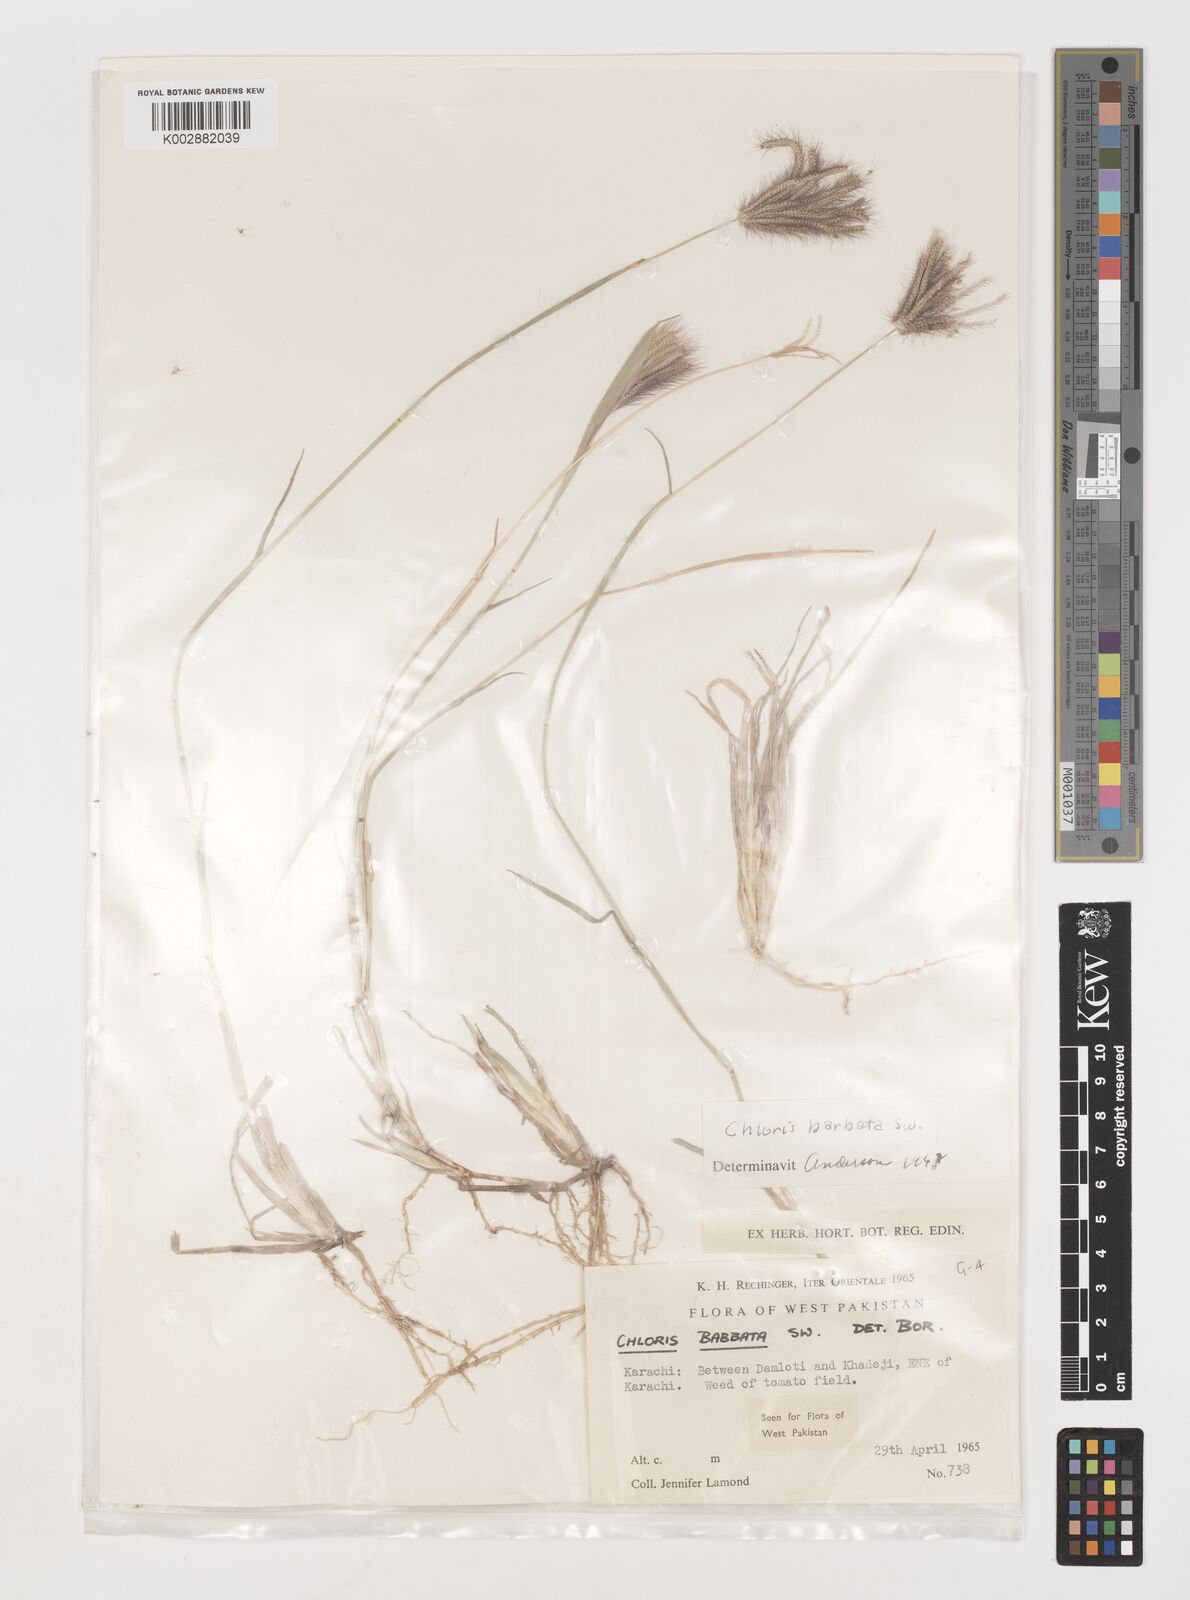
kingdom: Plantae
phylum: Tracheophyta
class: Liliopsida
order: Poales
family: Poaceae
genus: Chloris
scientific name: Chloris barbata
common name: Swollen fingergrass
